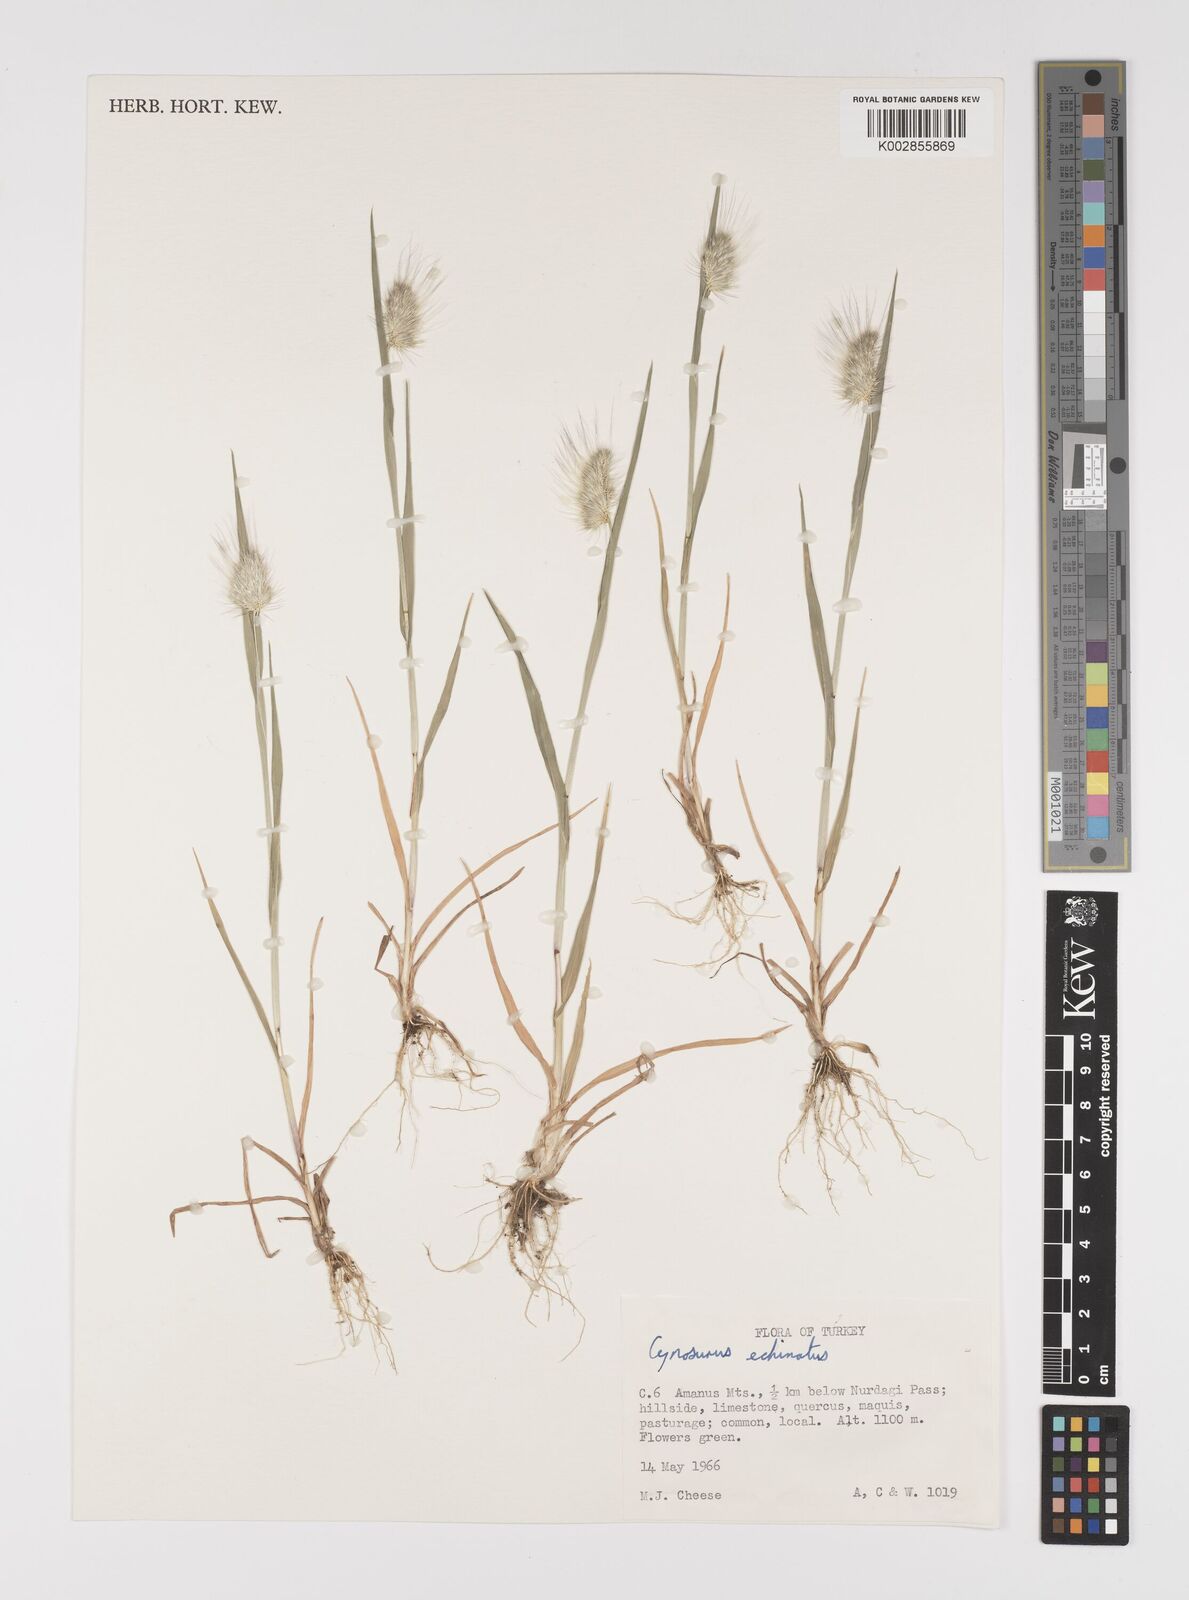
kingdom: Plantae
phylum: Tracheophyta
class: Liliopsida
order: Poales
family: Poaceae
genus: Cynosurus
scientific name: Cynosurus echinatus
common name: Rough dog's-tail
